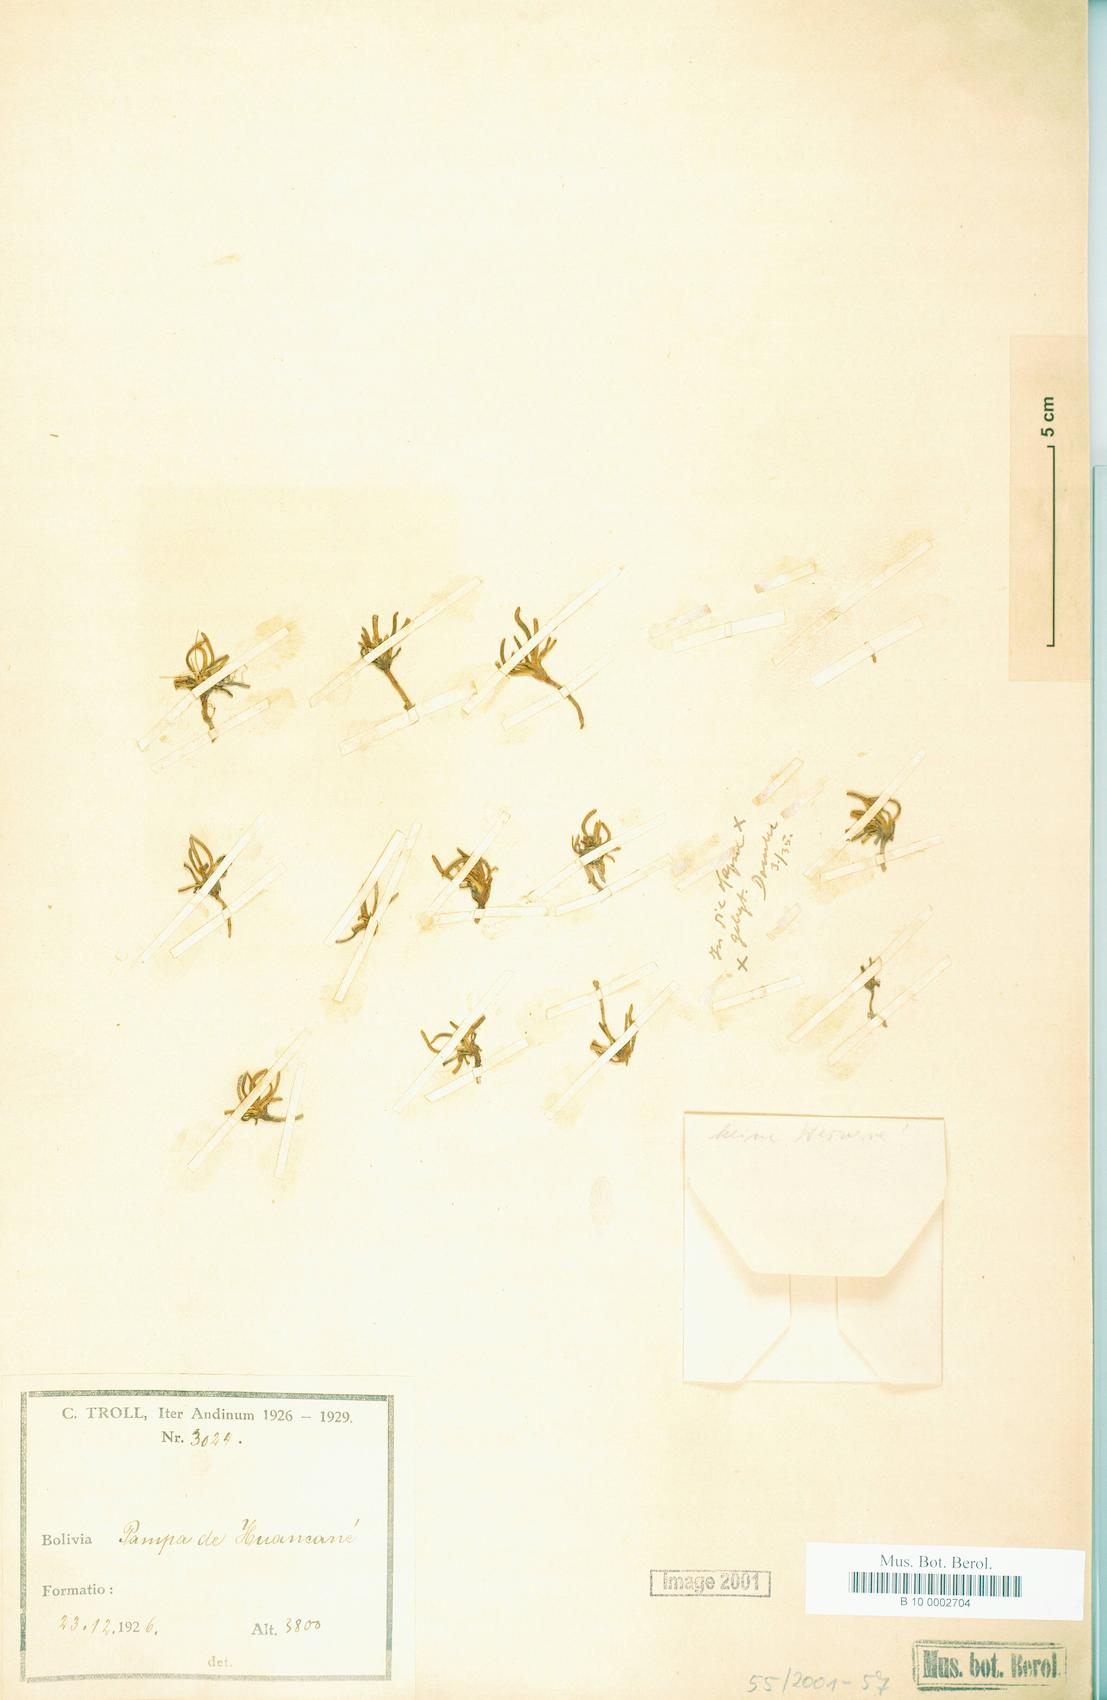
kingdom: Plantae
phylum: Tracheophyta
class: Magnoliopsida
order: Asterales
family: Asteraceae
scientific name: Asteraceae
